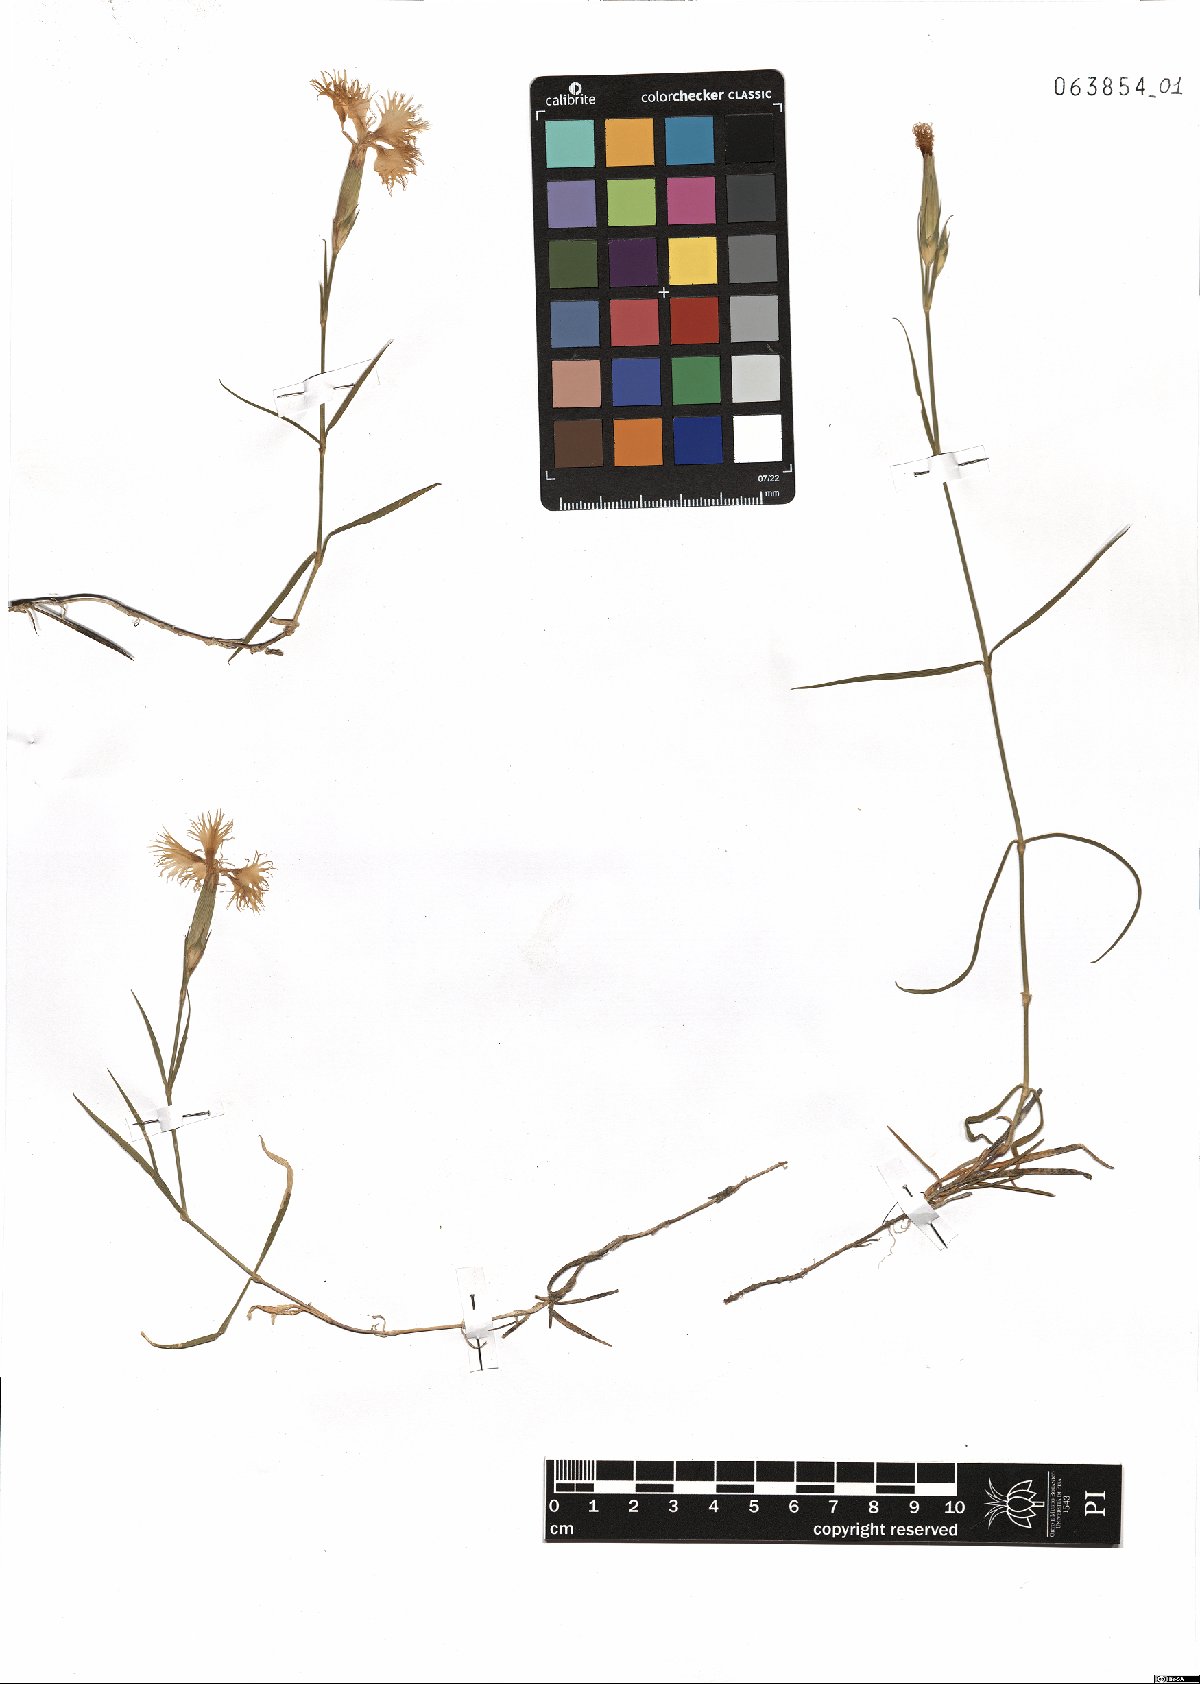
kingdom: Plantae
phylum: Tracheophyta
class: Magnoliopsida
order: Caryophyllales
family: Caryophyllaceae
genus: Dianthus
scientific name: Dianthus hyssopifolius
